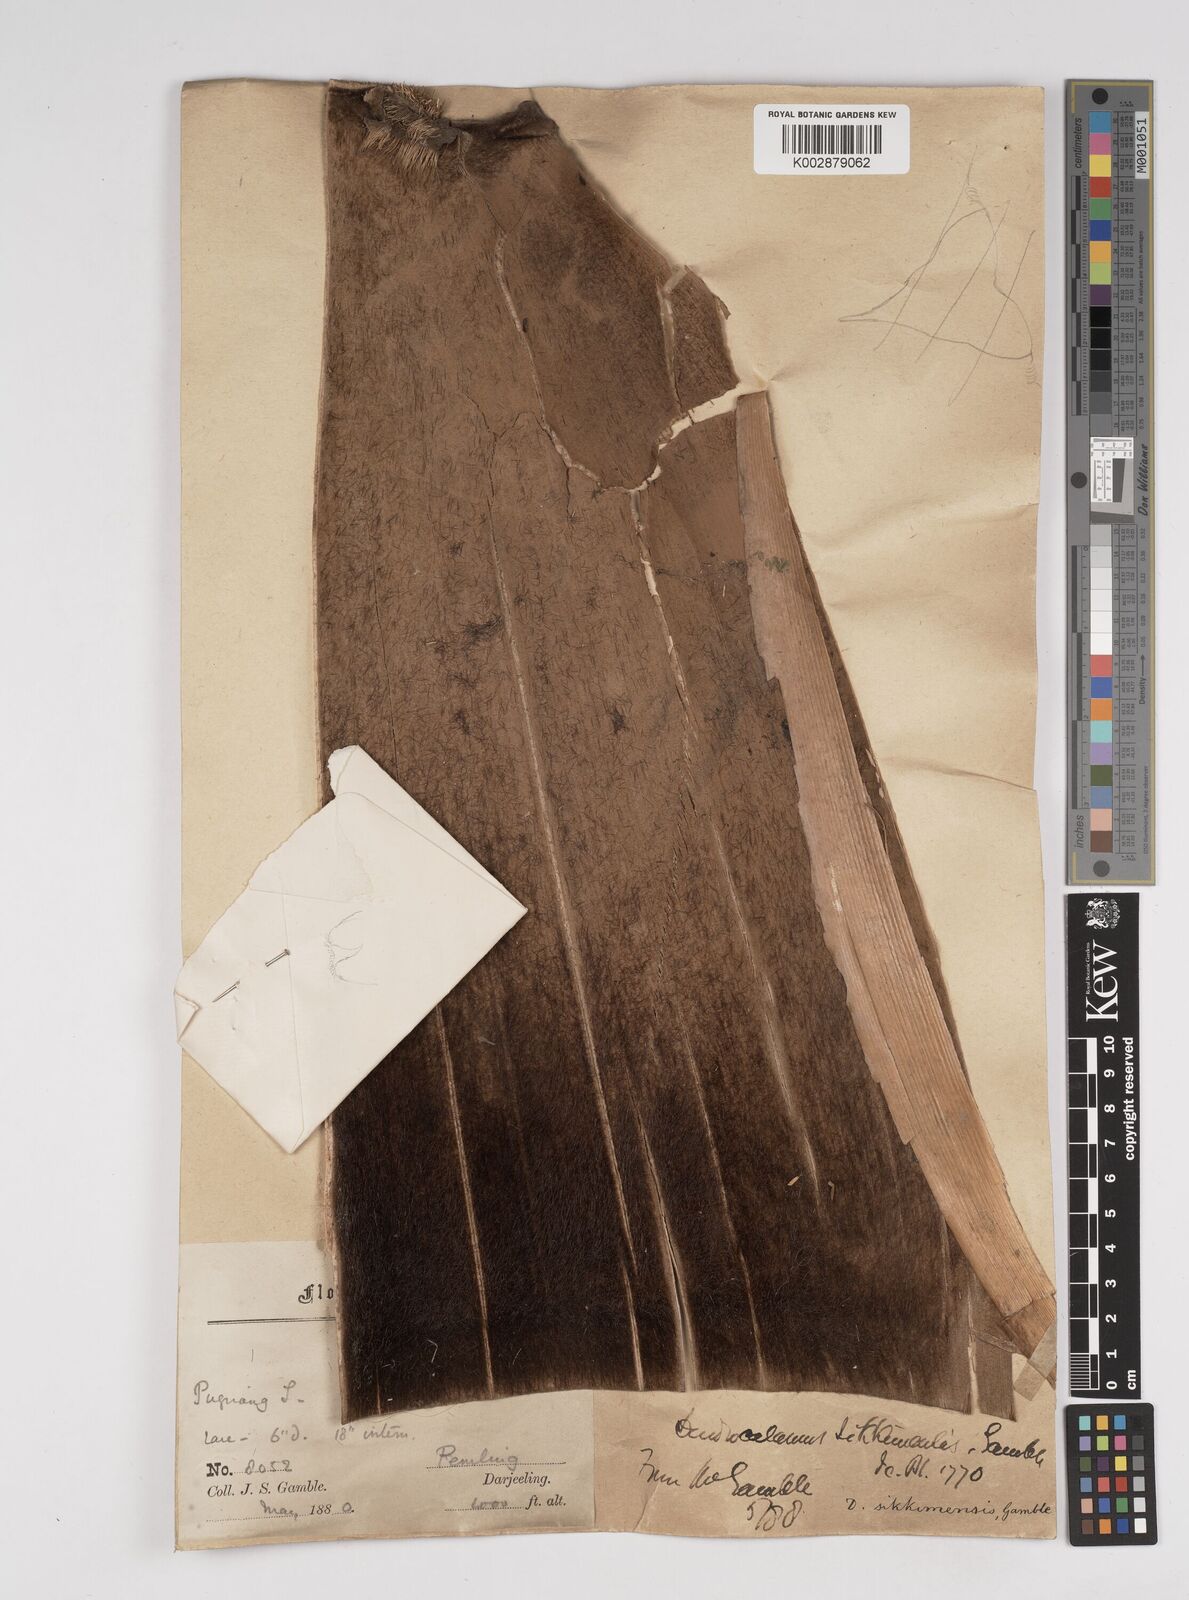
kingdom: Plantae
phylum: Tracheophyta
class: Liliopsida
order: Poales
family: Poaceae
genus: Dendrocalamus
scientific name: Dendrocalamus sikkimensis
